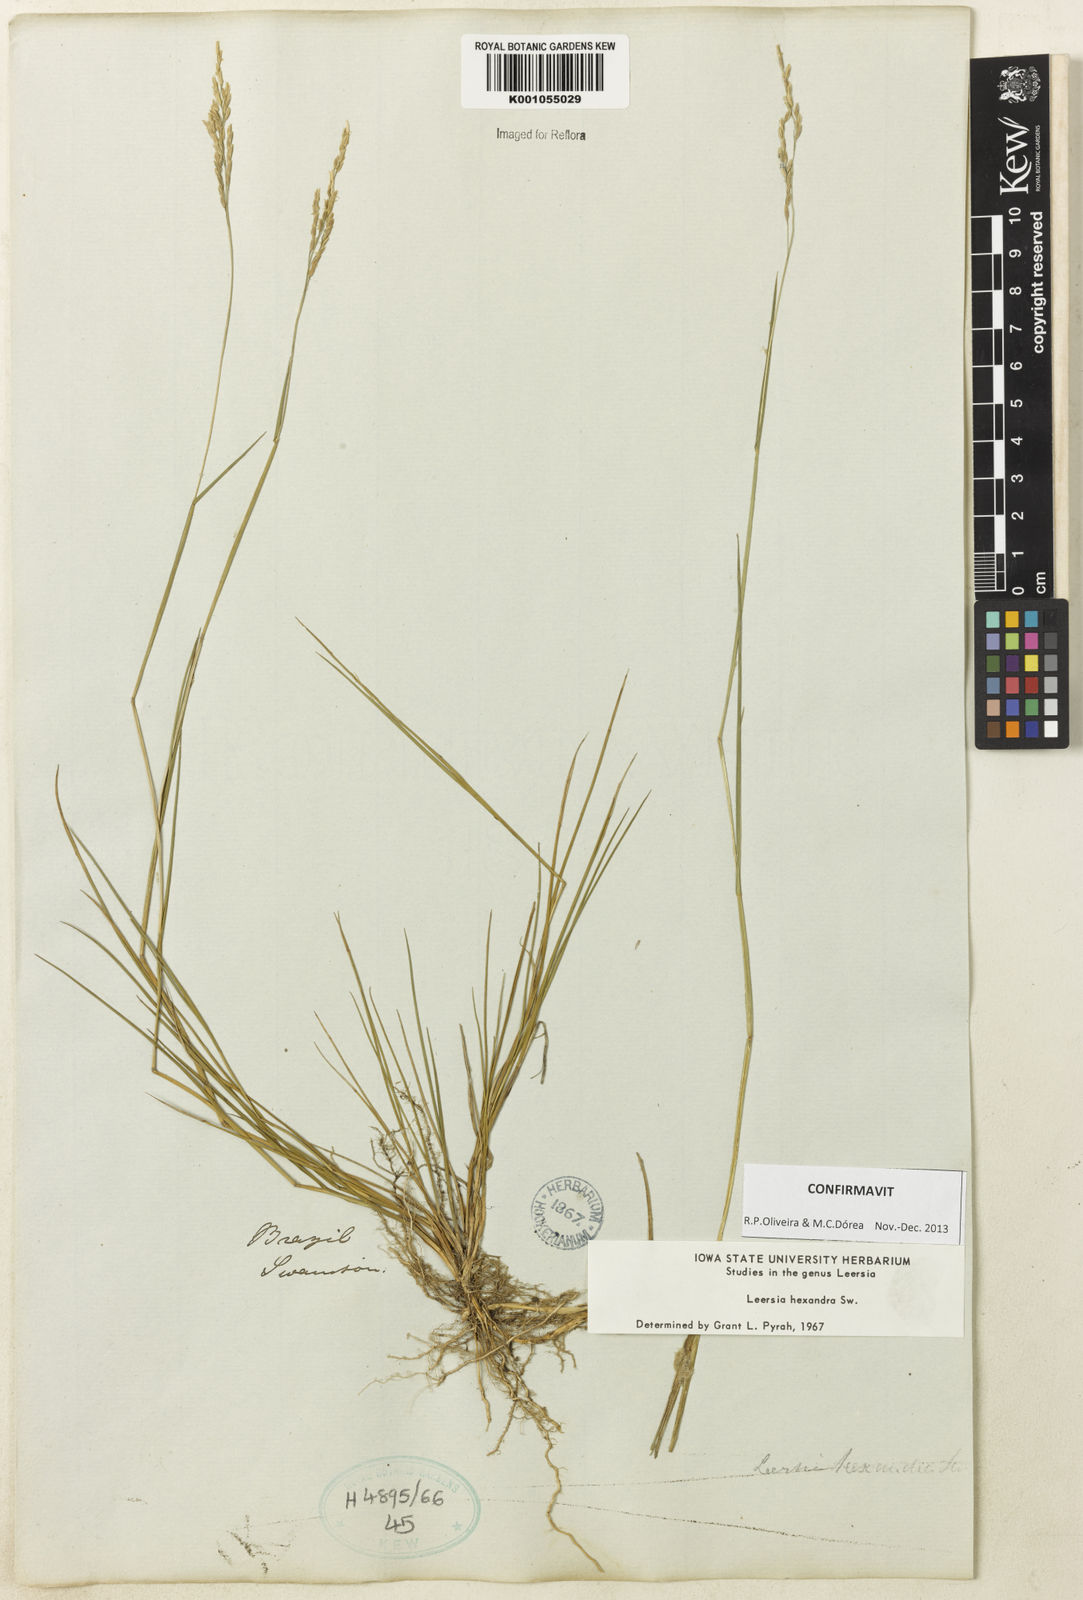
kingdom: Plantae
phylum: Tracheophyta
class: Liliopsida
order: Poales
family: Poaceae
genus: Leersia
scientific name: Leersia hexandra
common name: Southern cut grass
